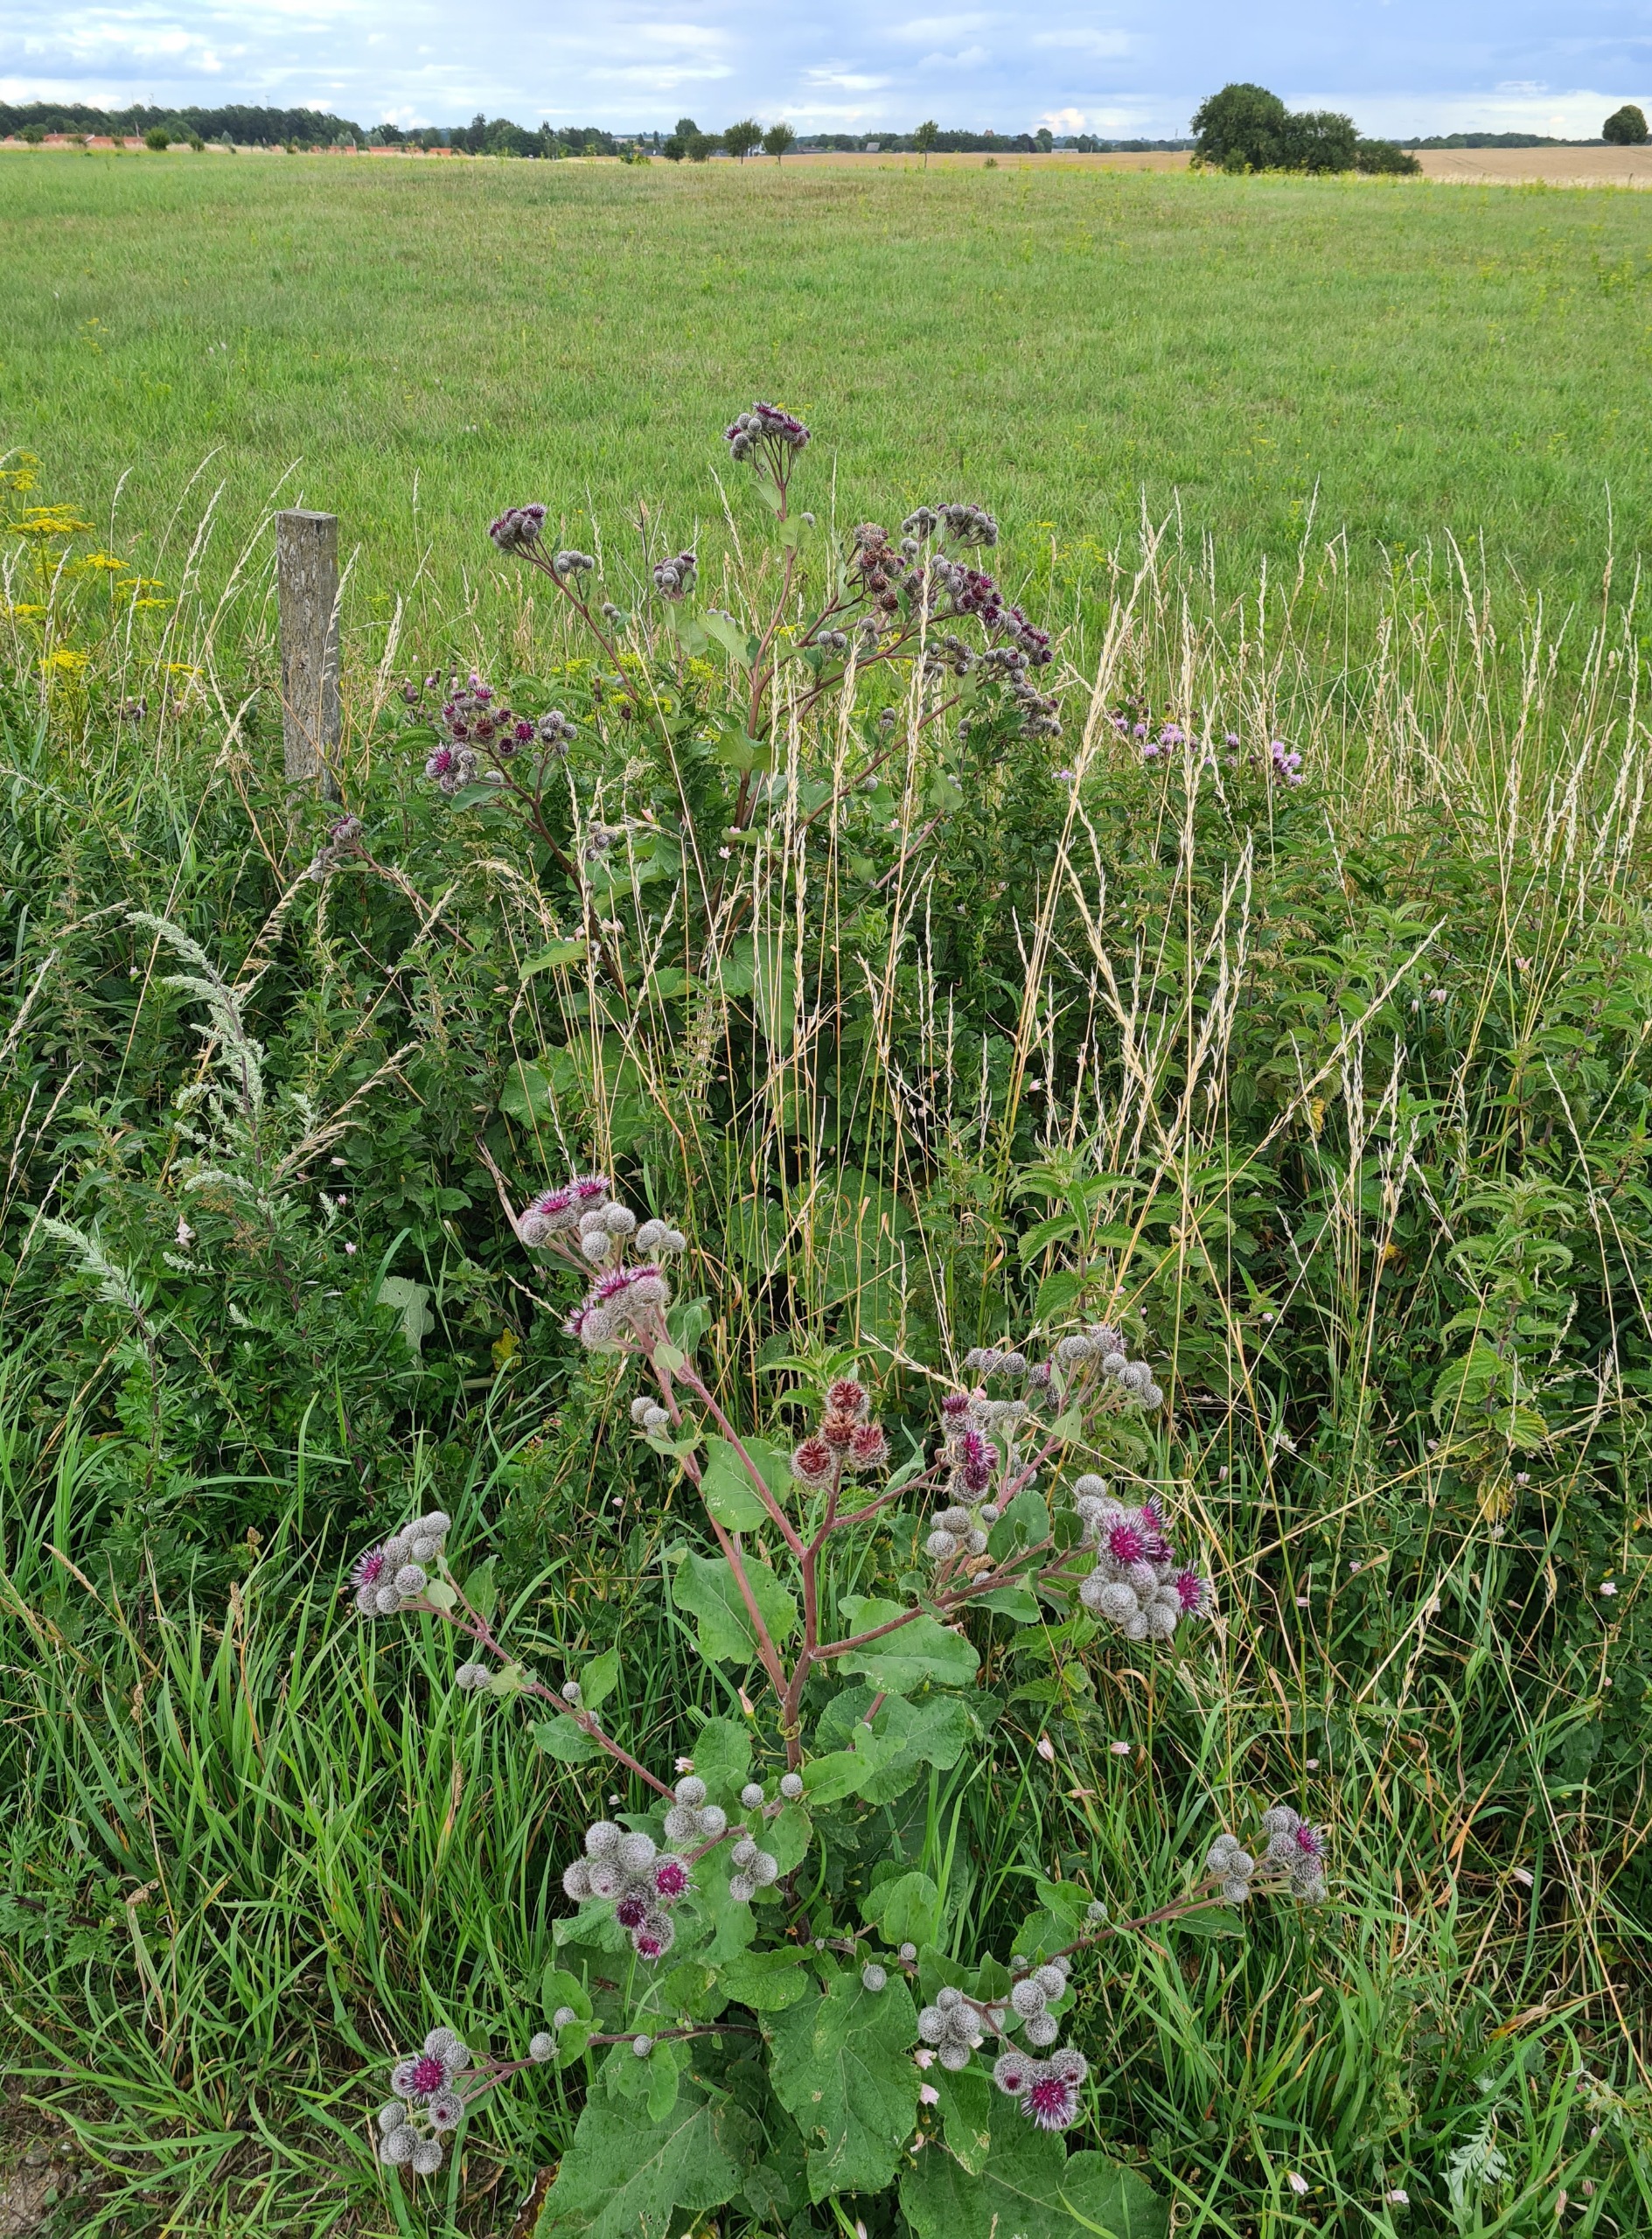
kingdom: Plantae
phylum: Tracheophyta
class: Magnoliopsida
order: Asterales
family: Asteraceae
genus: Arctium
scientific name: Arctium tomentosum
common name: Filtet burre
